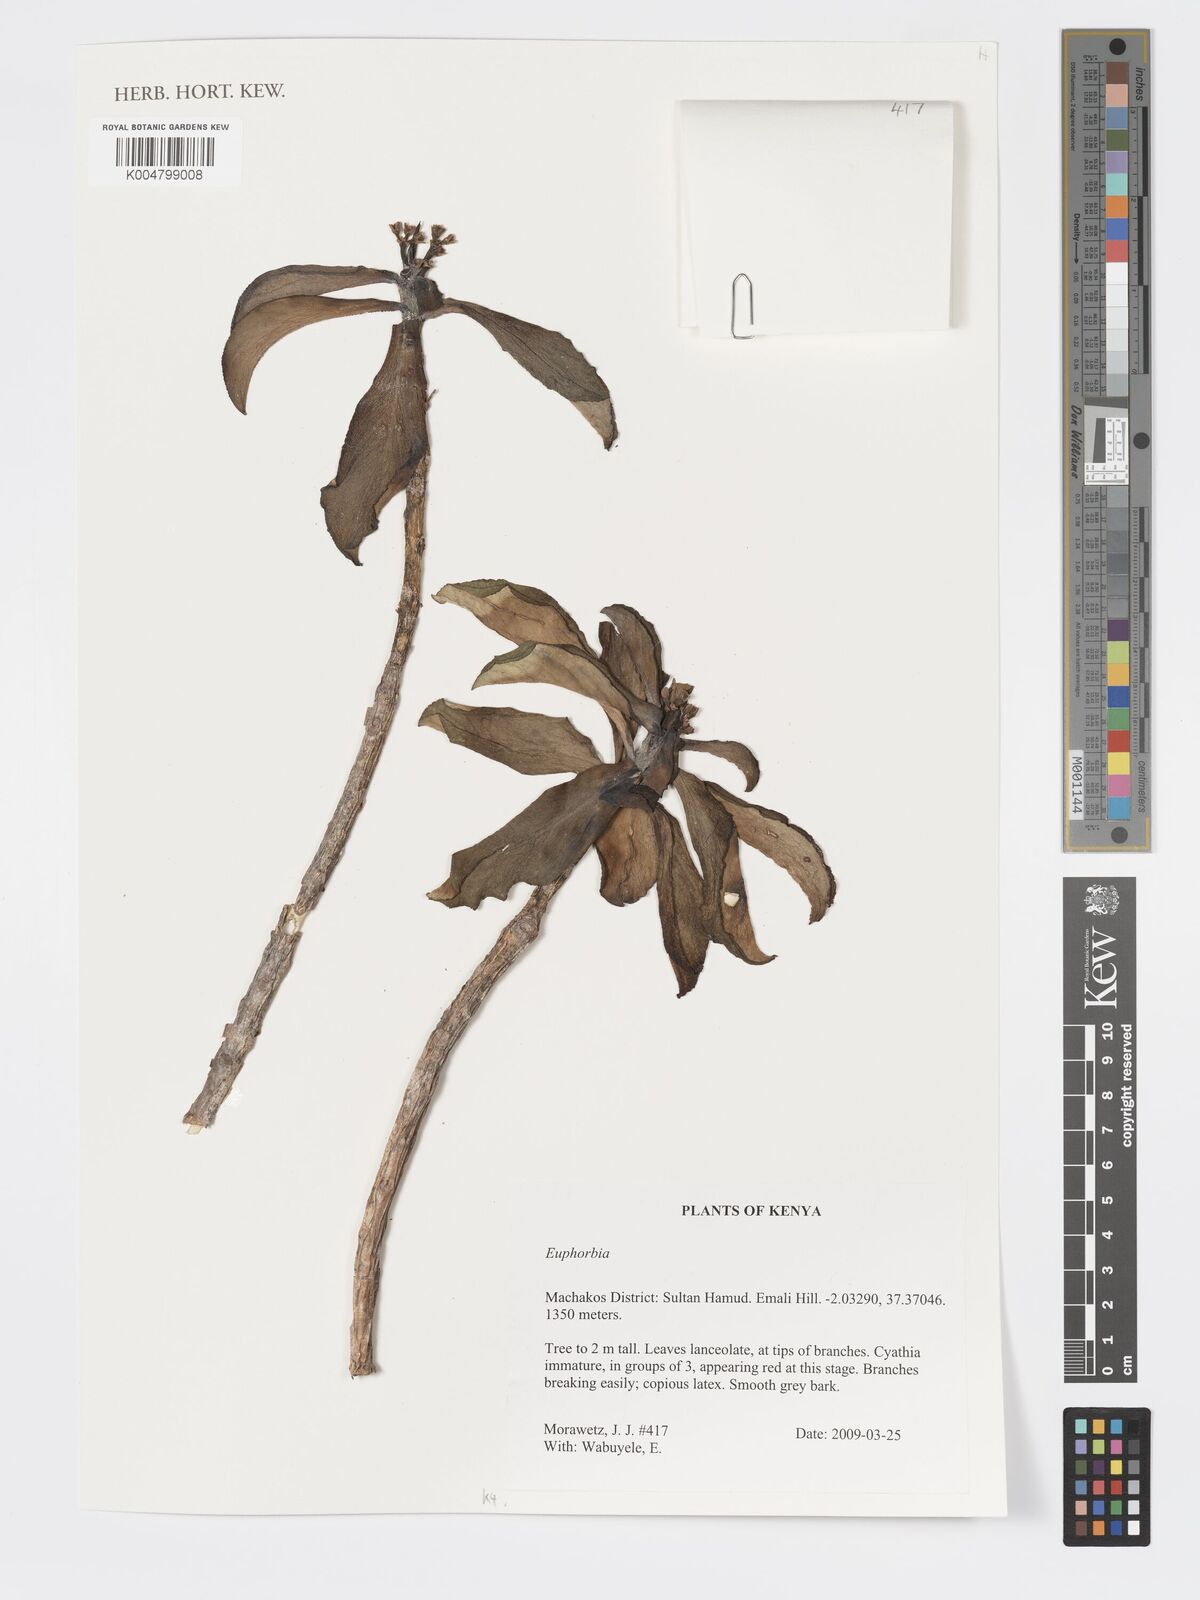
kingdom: Plantae
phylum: Tracheophyta
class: Magnoliopsida
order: Malpighiales
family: Euphorbiaceae
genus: Euphorbia
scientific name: Euphorbia
